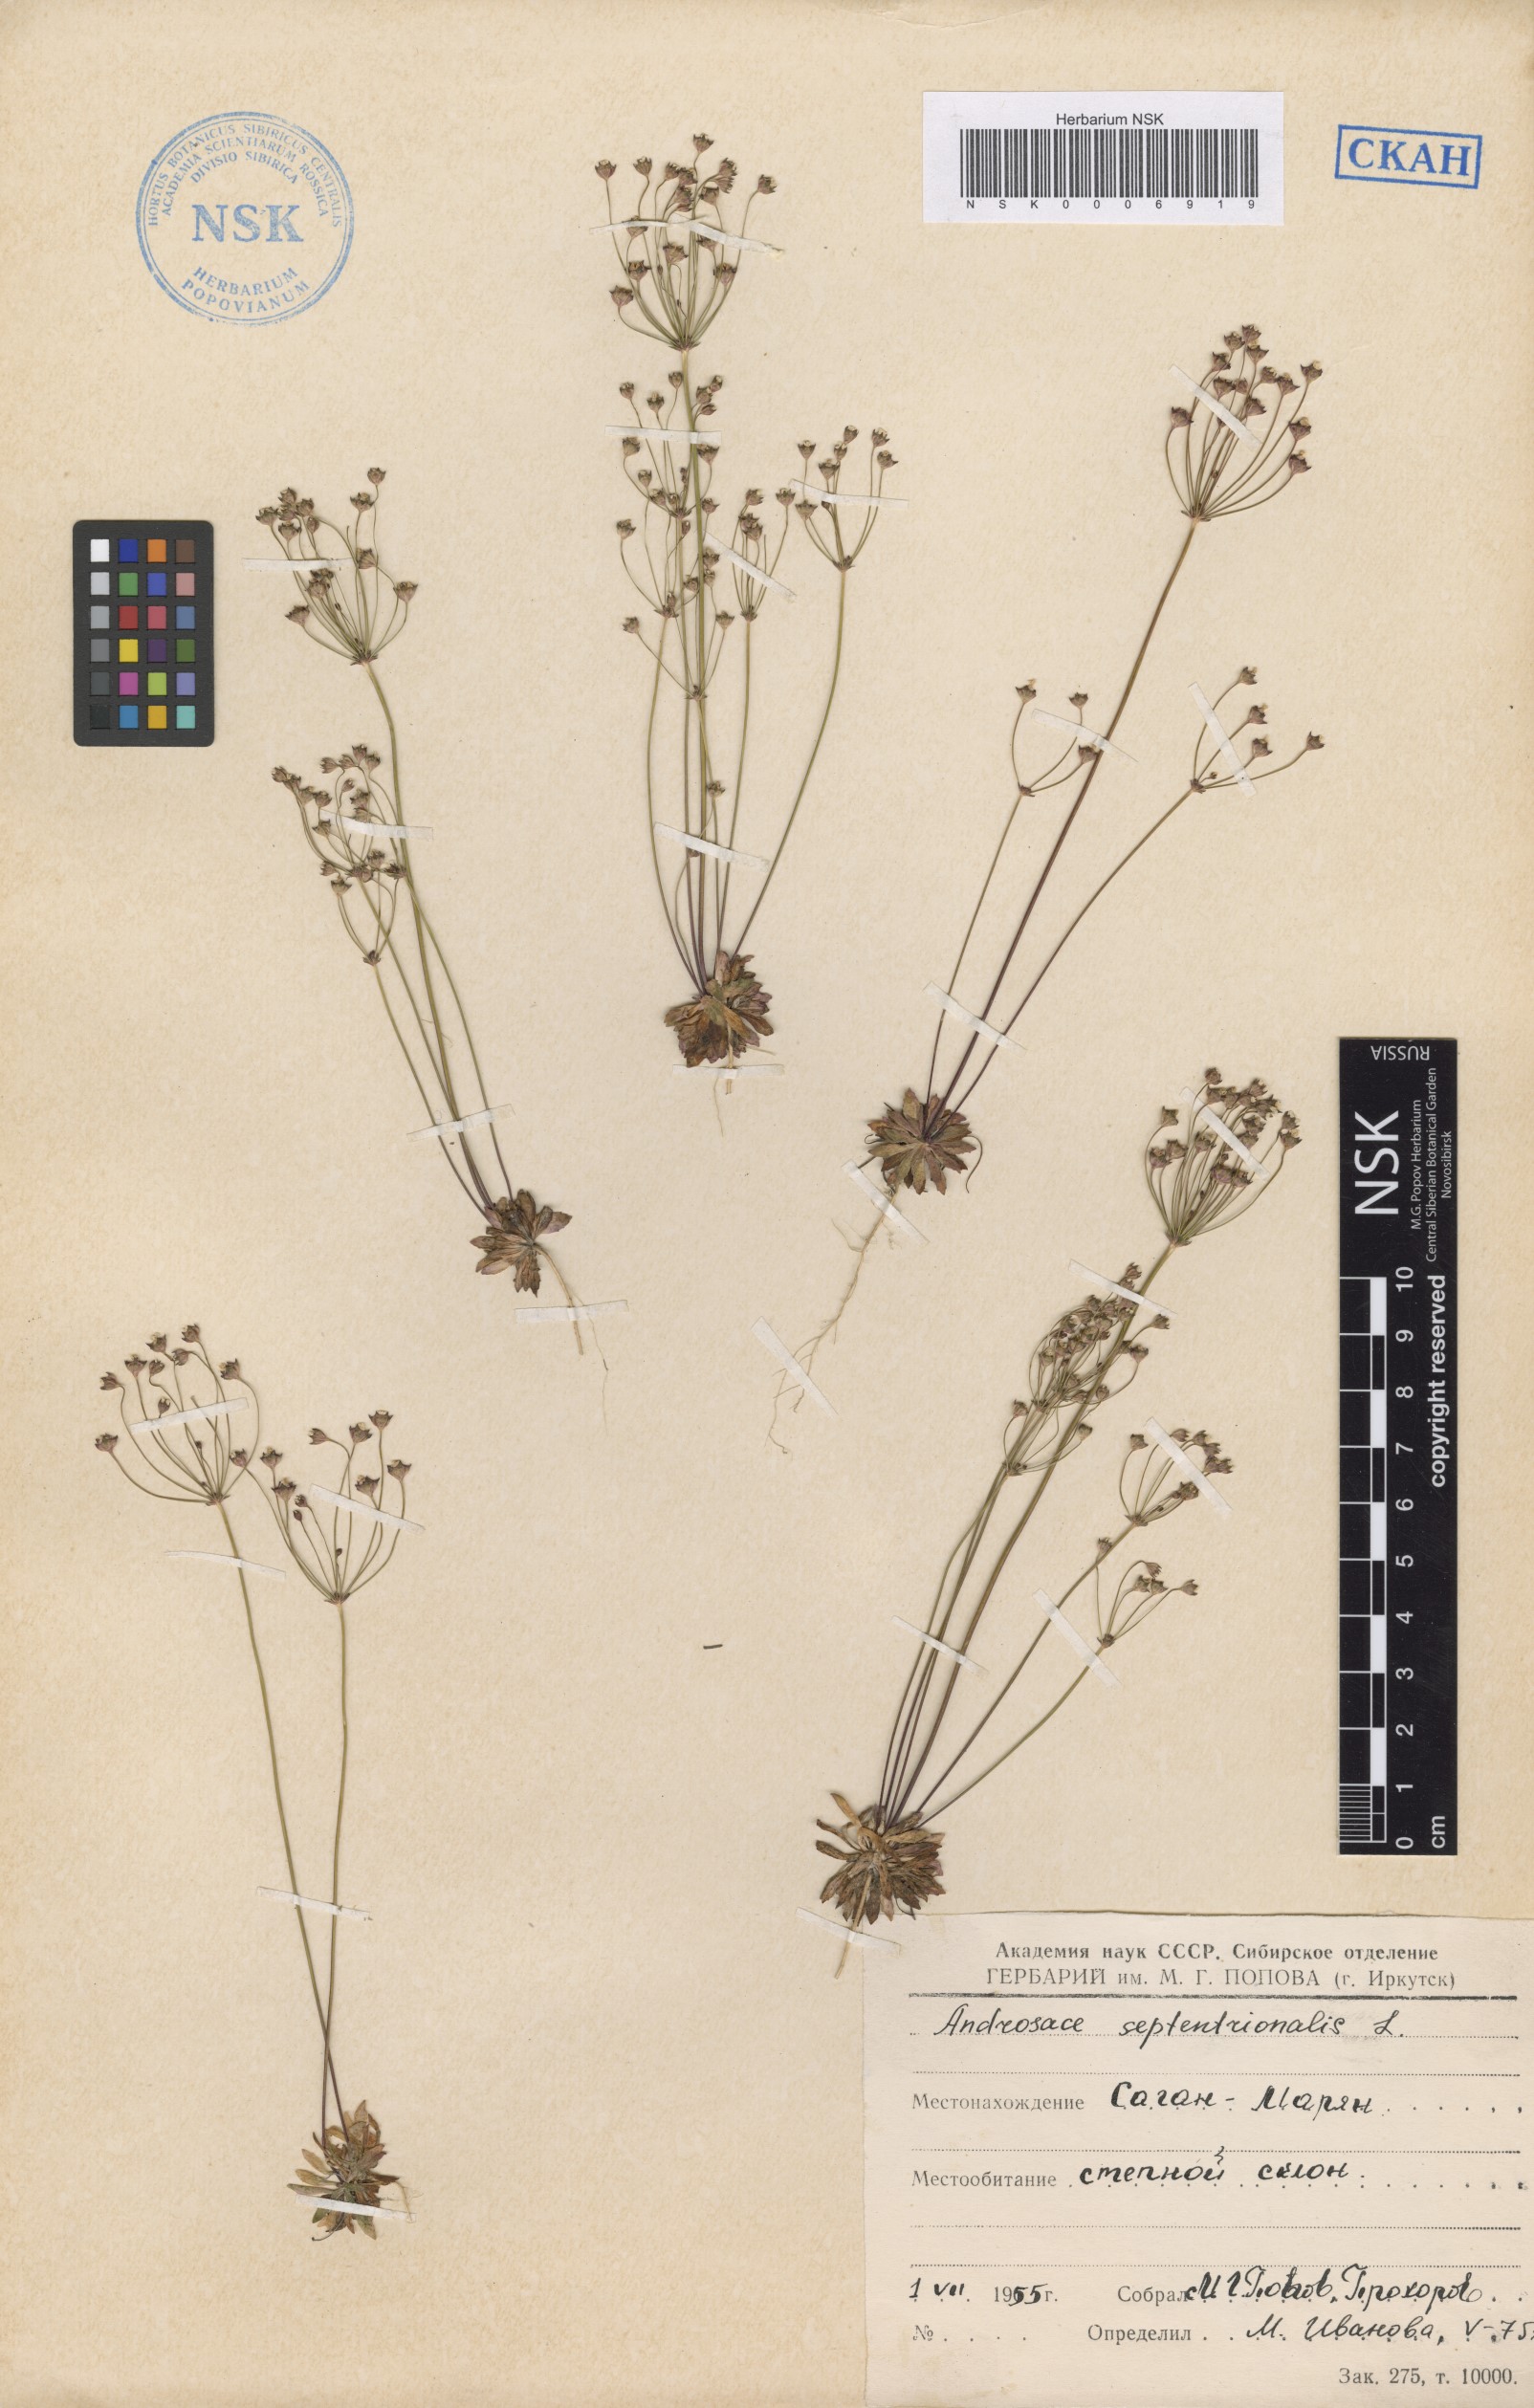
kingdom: Plantae
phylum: Tracheophyta
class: Magnoliopsida
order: Ericales
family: Primulaceae
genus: Androsace
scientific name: Androsace septentrionalis
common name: Hairy northern fairy-candelabra
